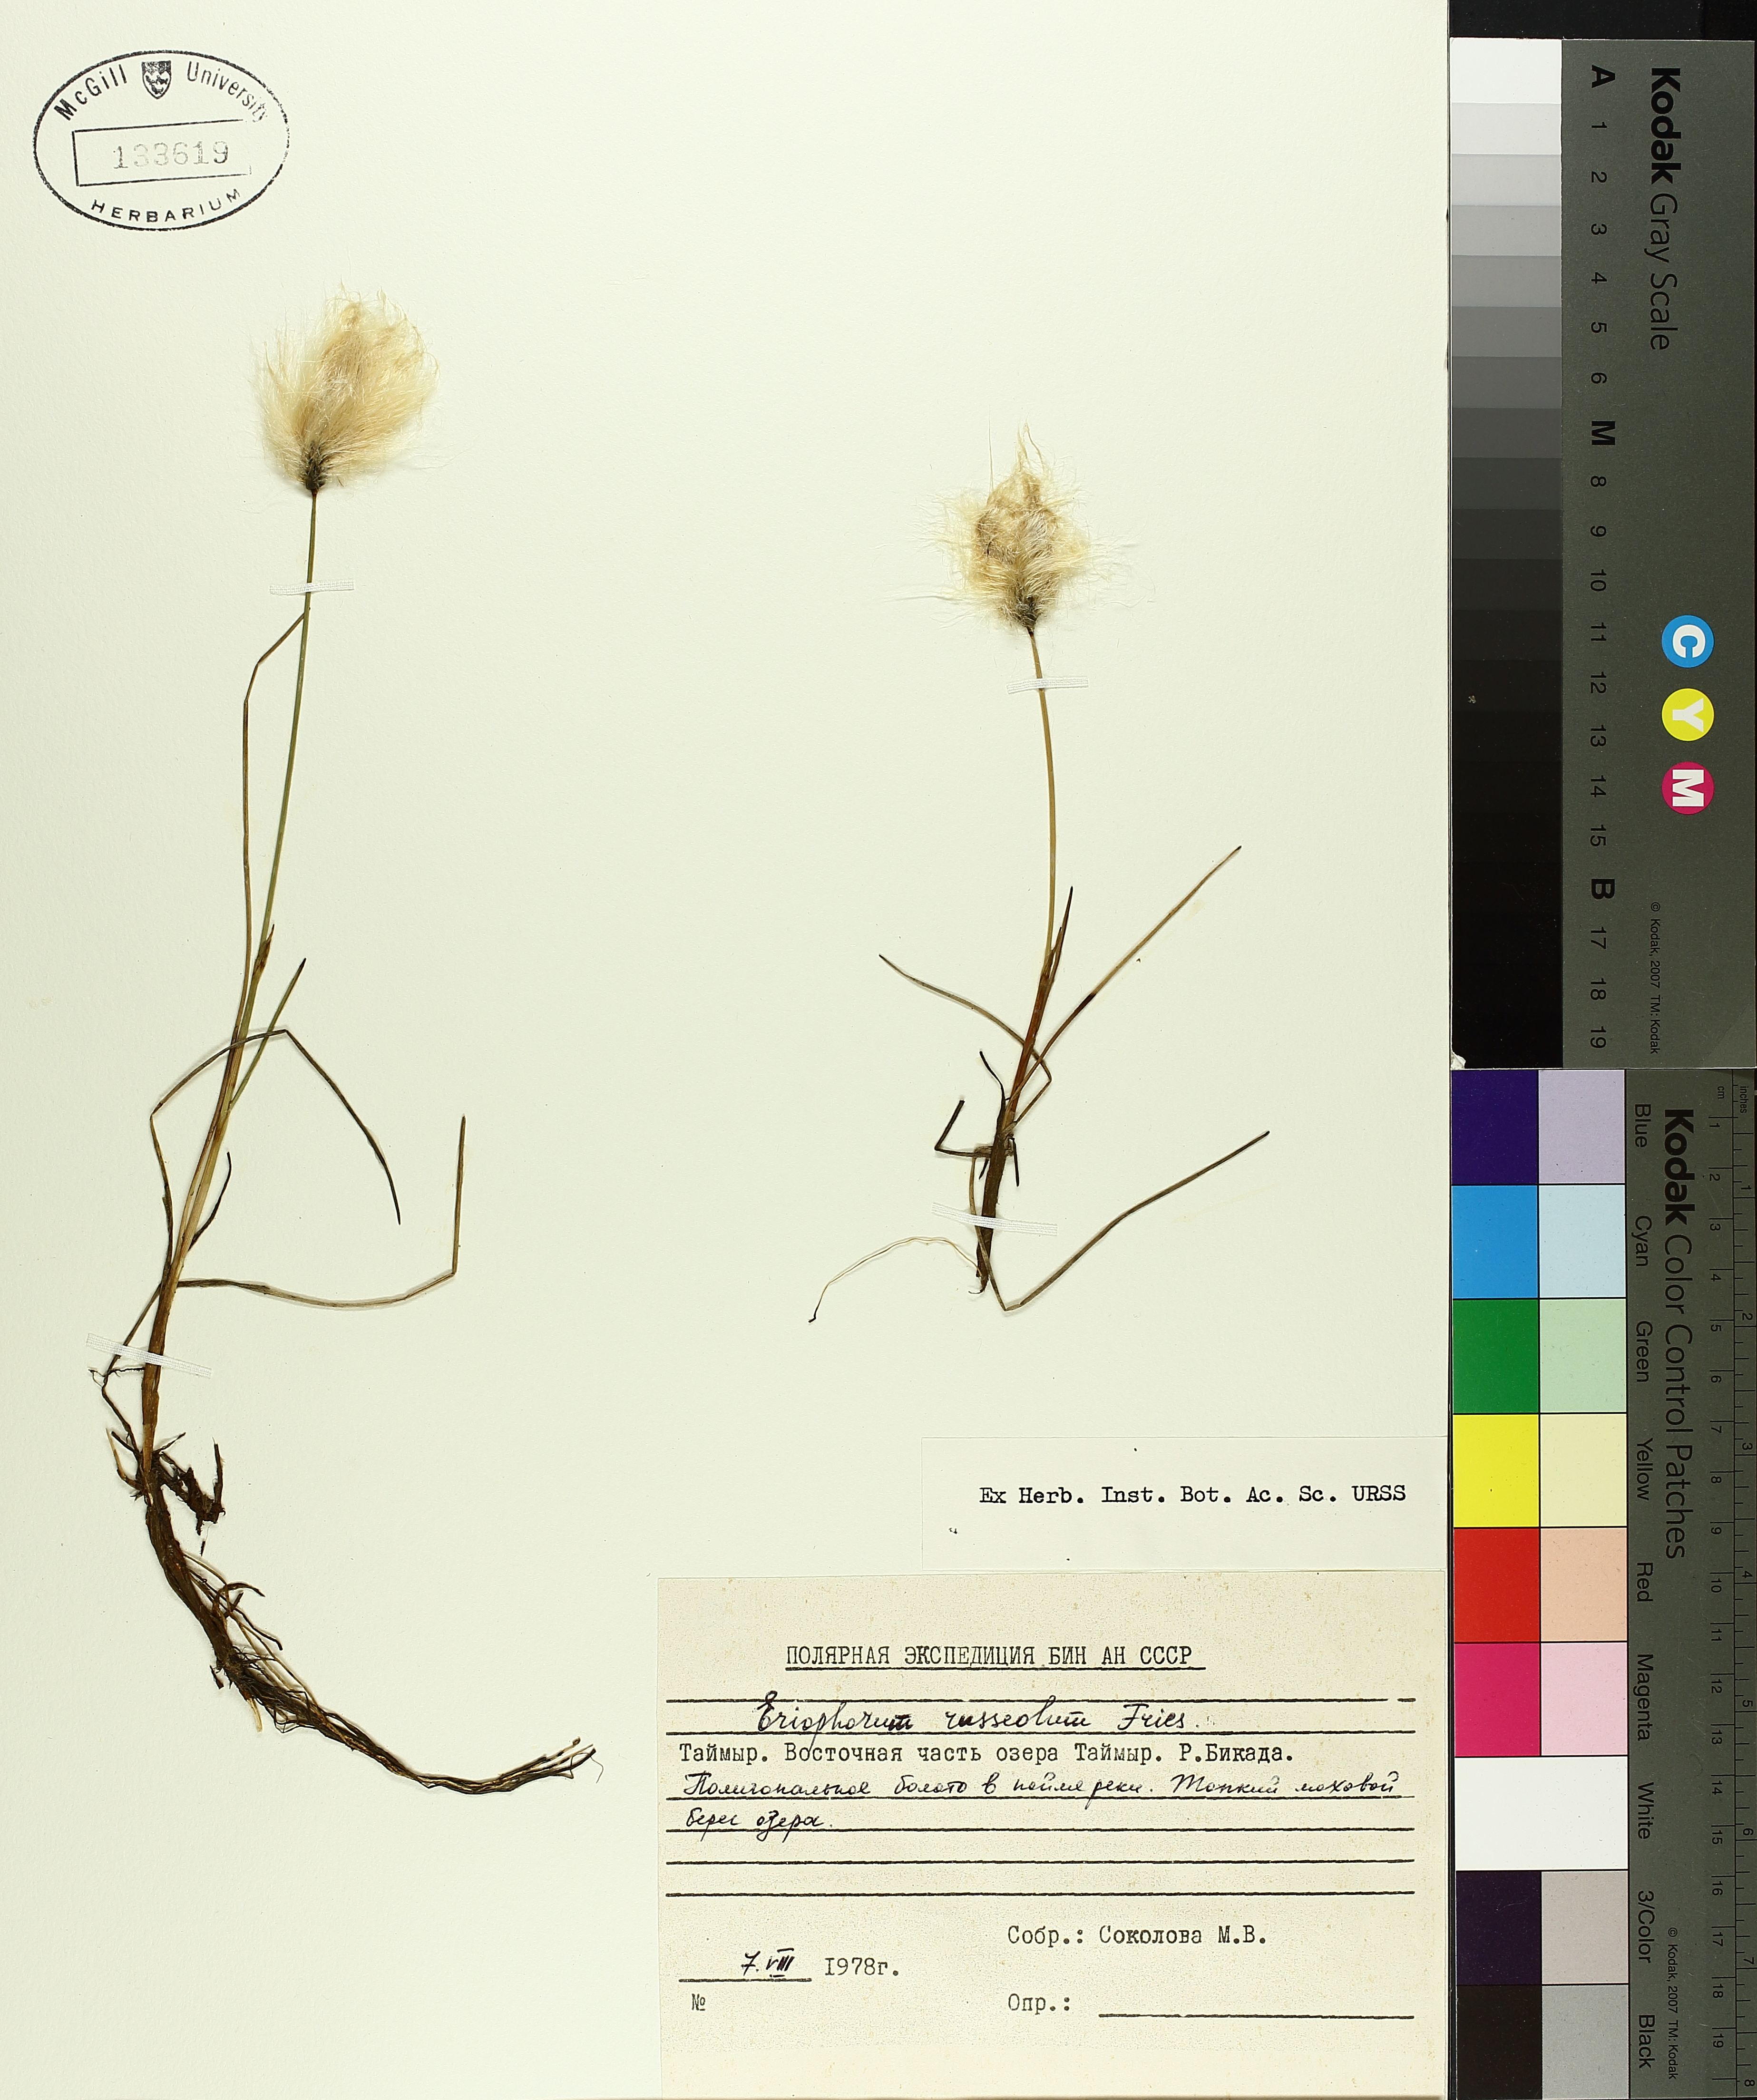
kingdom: Plantae
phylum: Tracheophyta
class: Liliopsida
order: Poales
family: Cyperaceae
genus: Eriophorum
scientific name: Eriophorum chamissonis
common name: Chamisso's cottongrass
